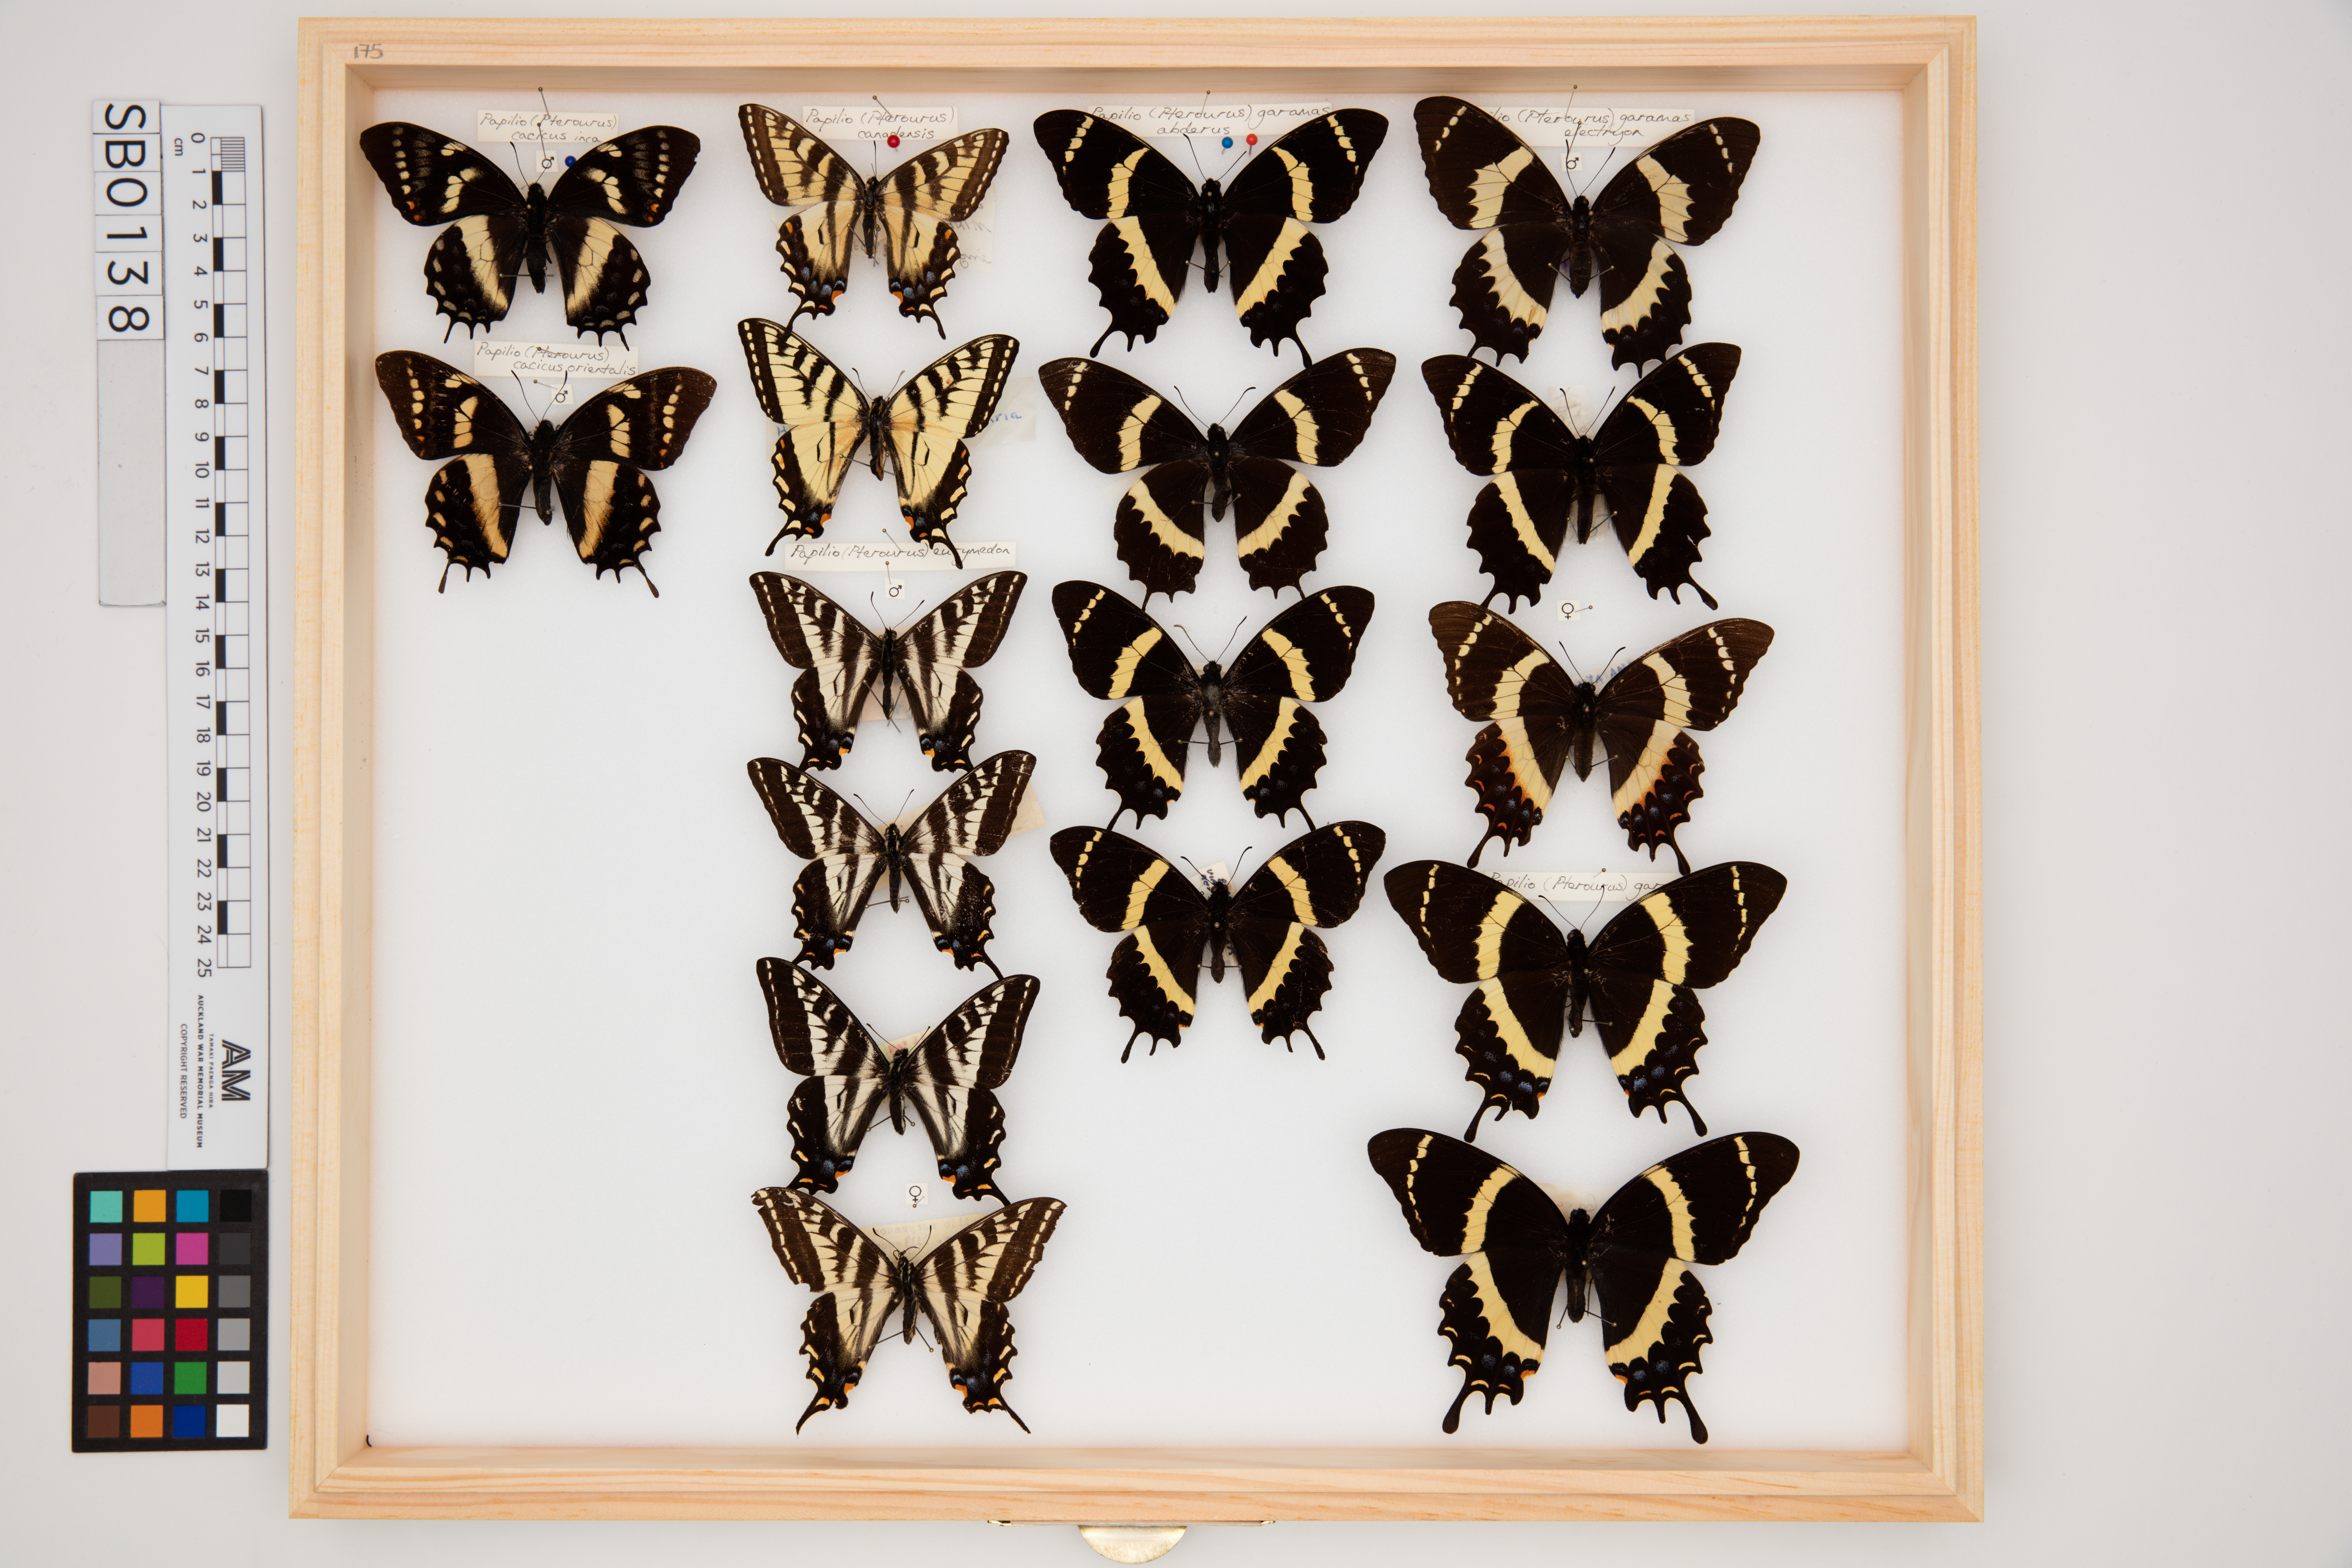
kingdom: Animalia
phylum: Arthropoda
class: Insecta
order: Lepidoptera
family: Papilionidae
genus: Papilio
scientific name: Papilio garamas
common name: Magnificent swallowtail
